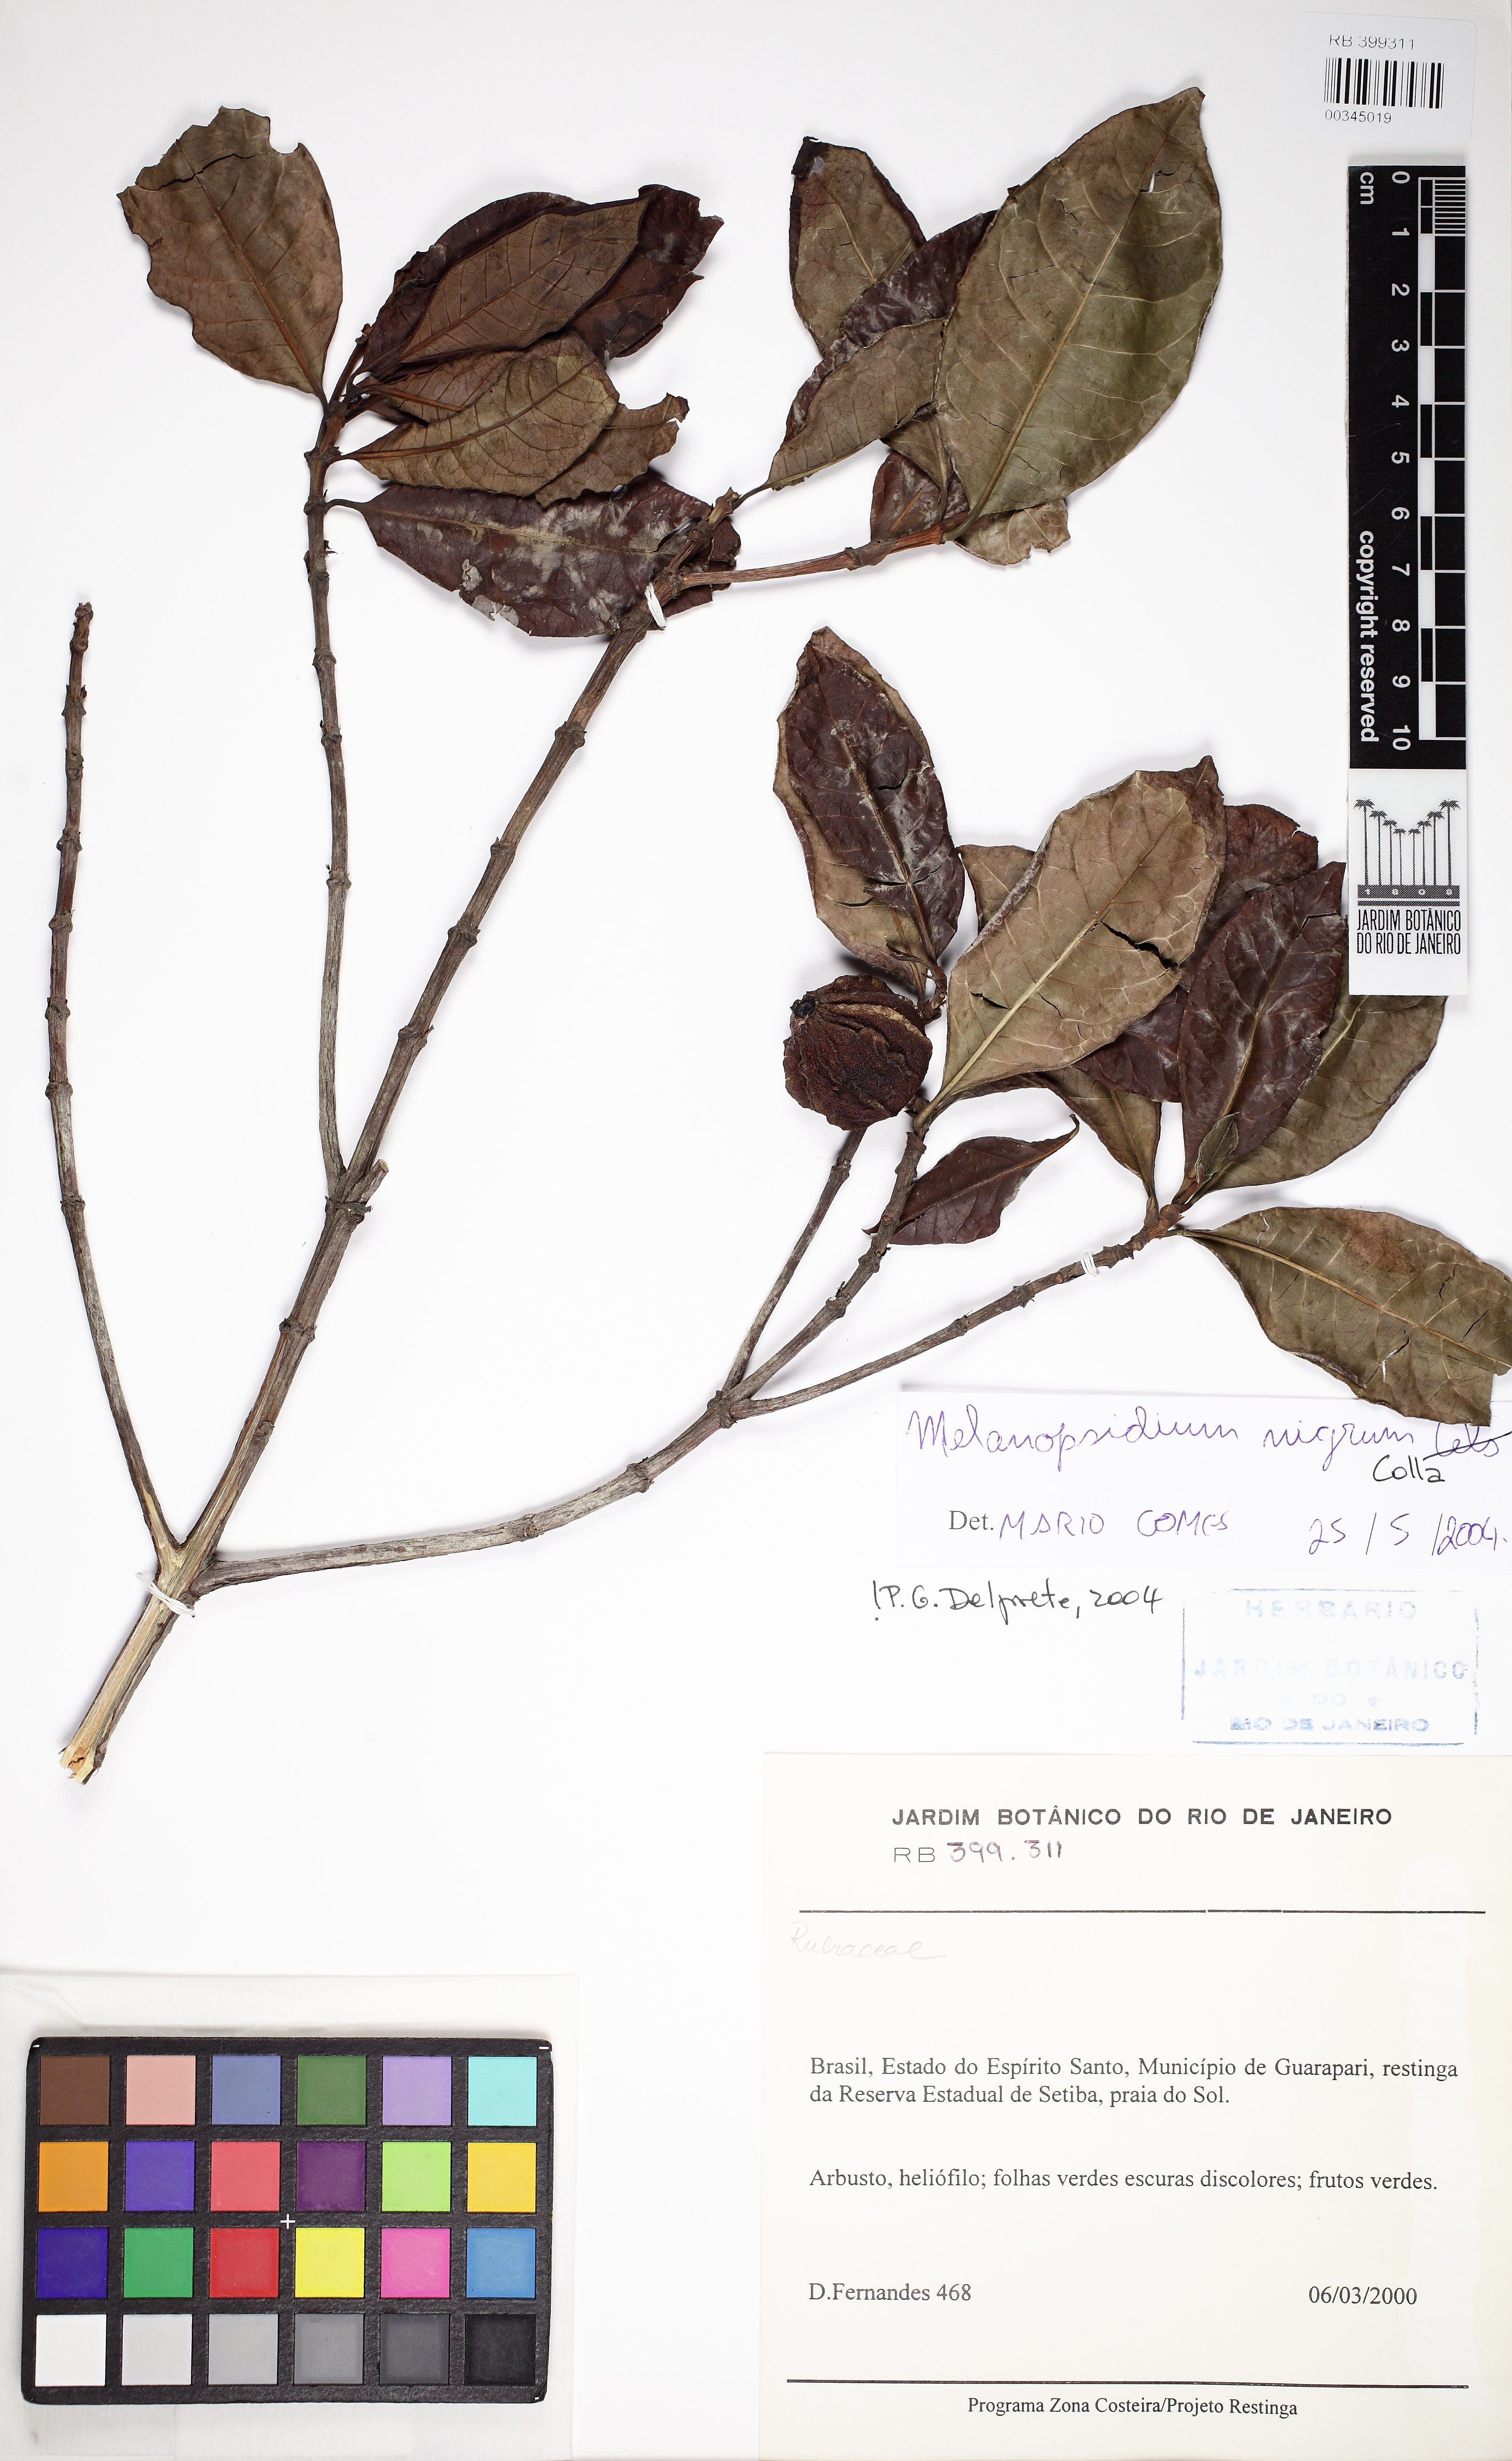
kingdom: Plantae
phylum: Tracheophyta
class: Magnoliopsida
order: Gentianales
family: Rubiaceae
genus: Melanopsidium
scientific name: Melanopsidium nigrum
